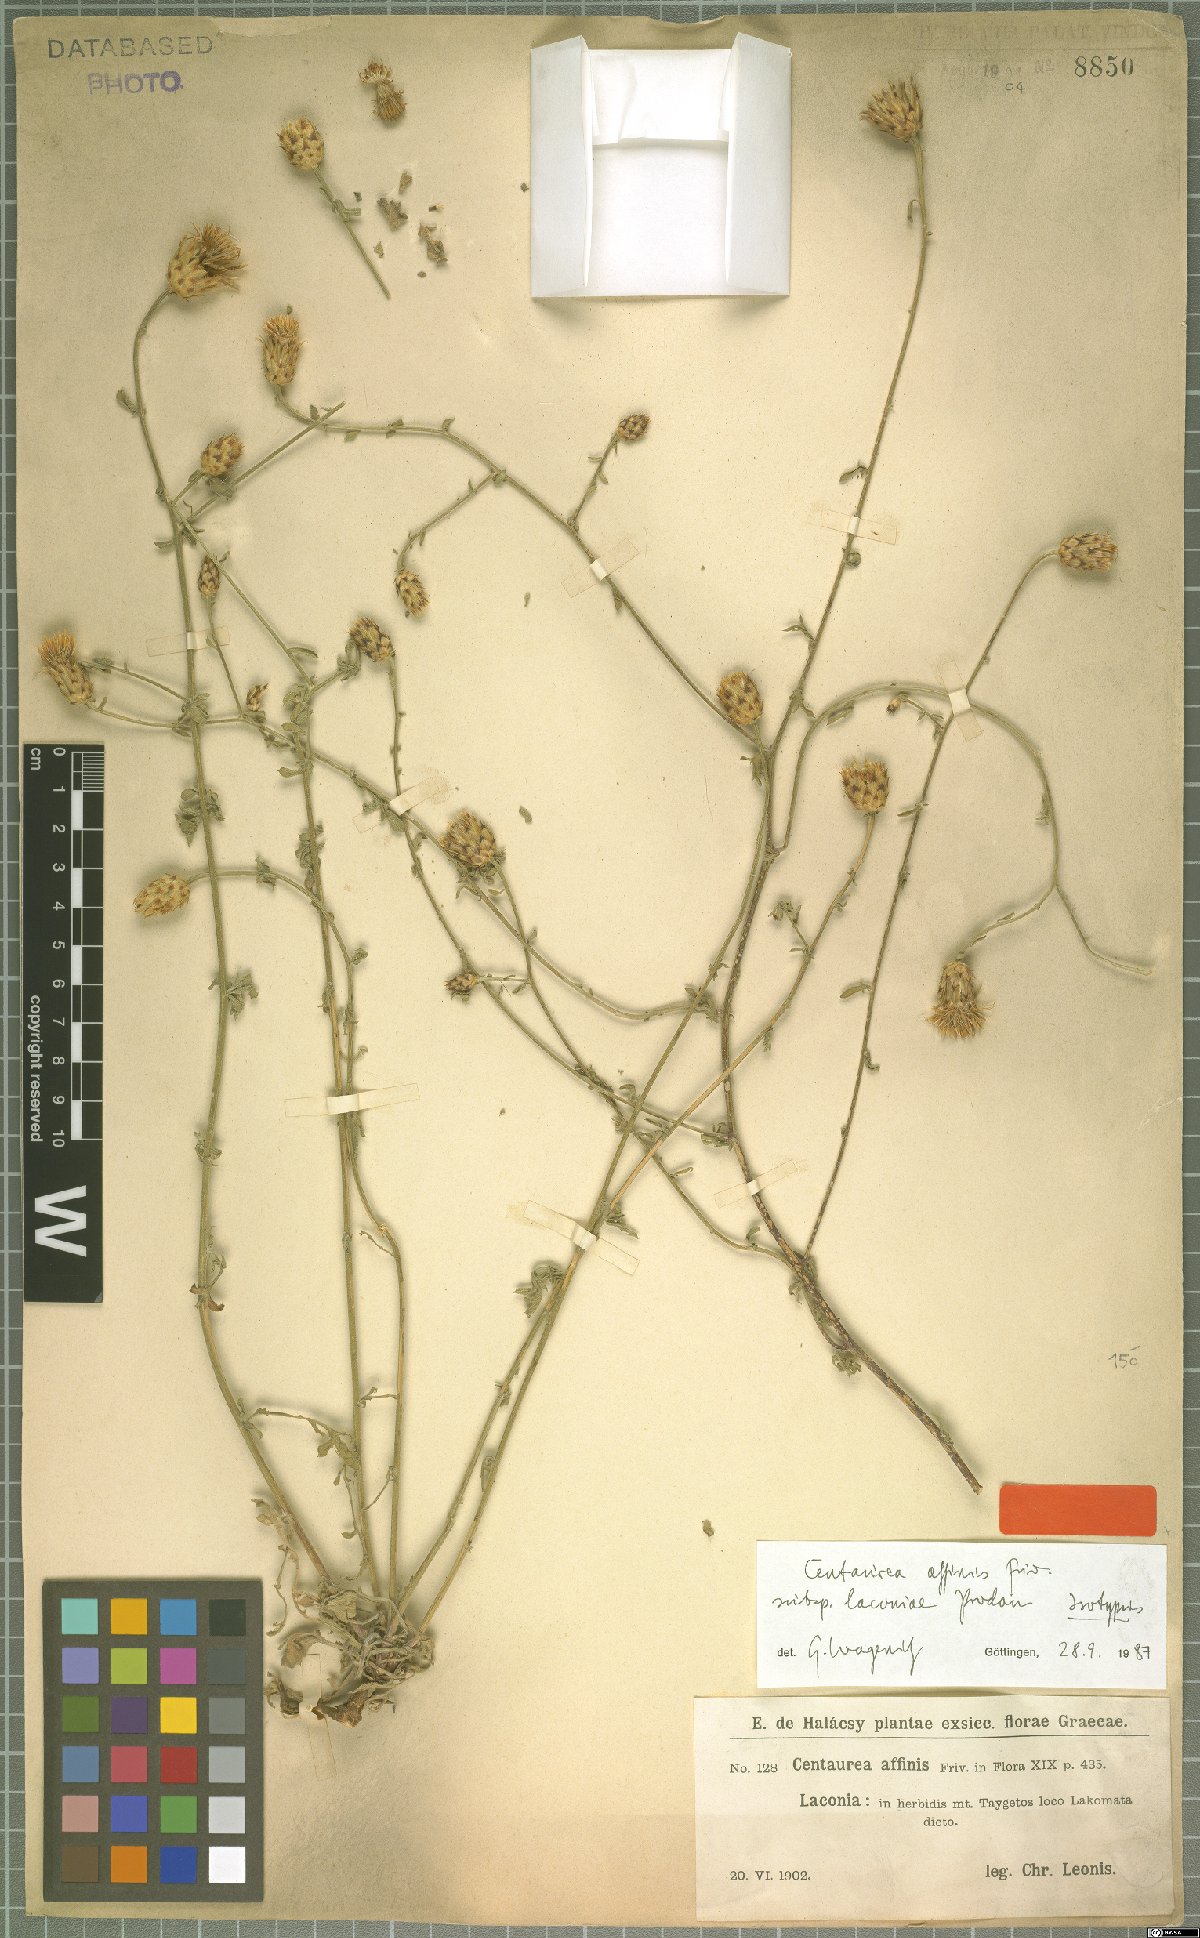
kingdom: Plantae
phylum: Tracheophyta
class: Magnoliopsida
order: Asterales
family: Asteraceae
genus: Centaurea
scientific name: Centaurea affinis
